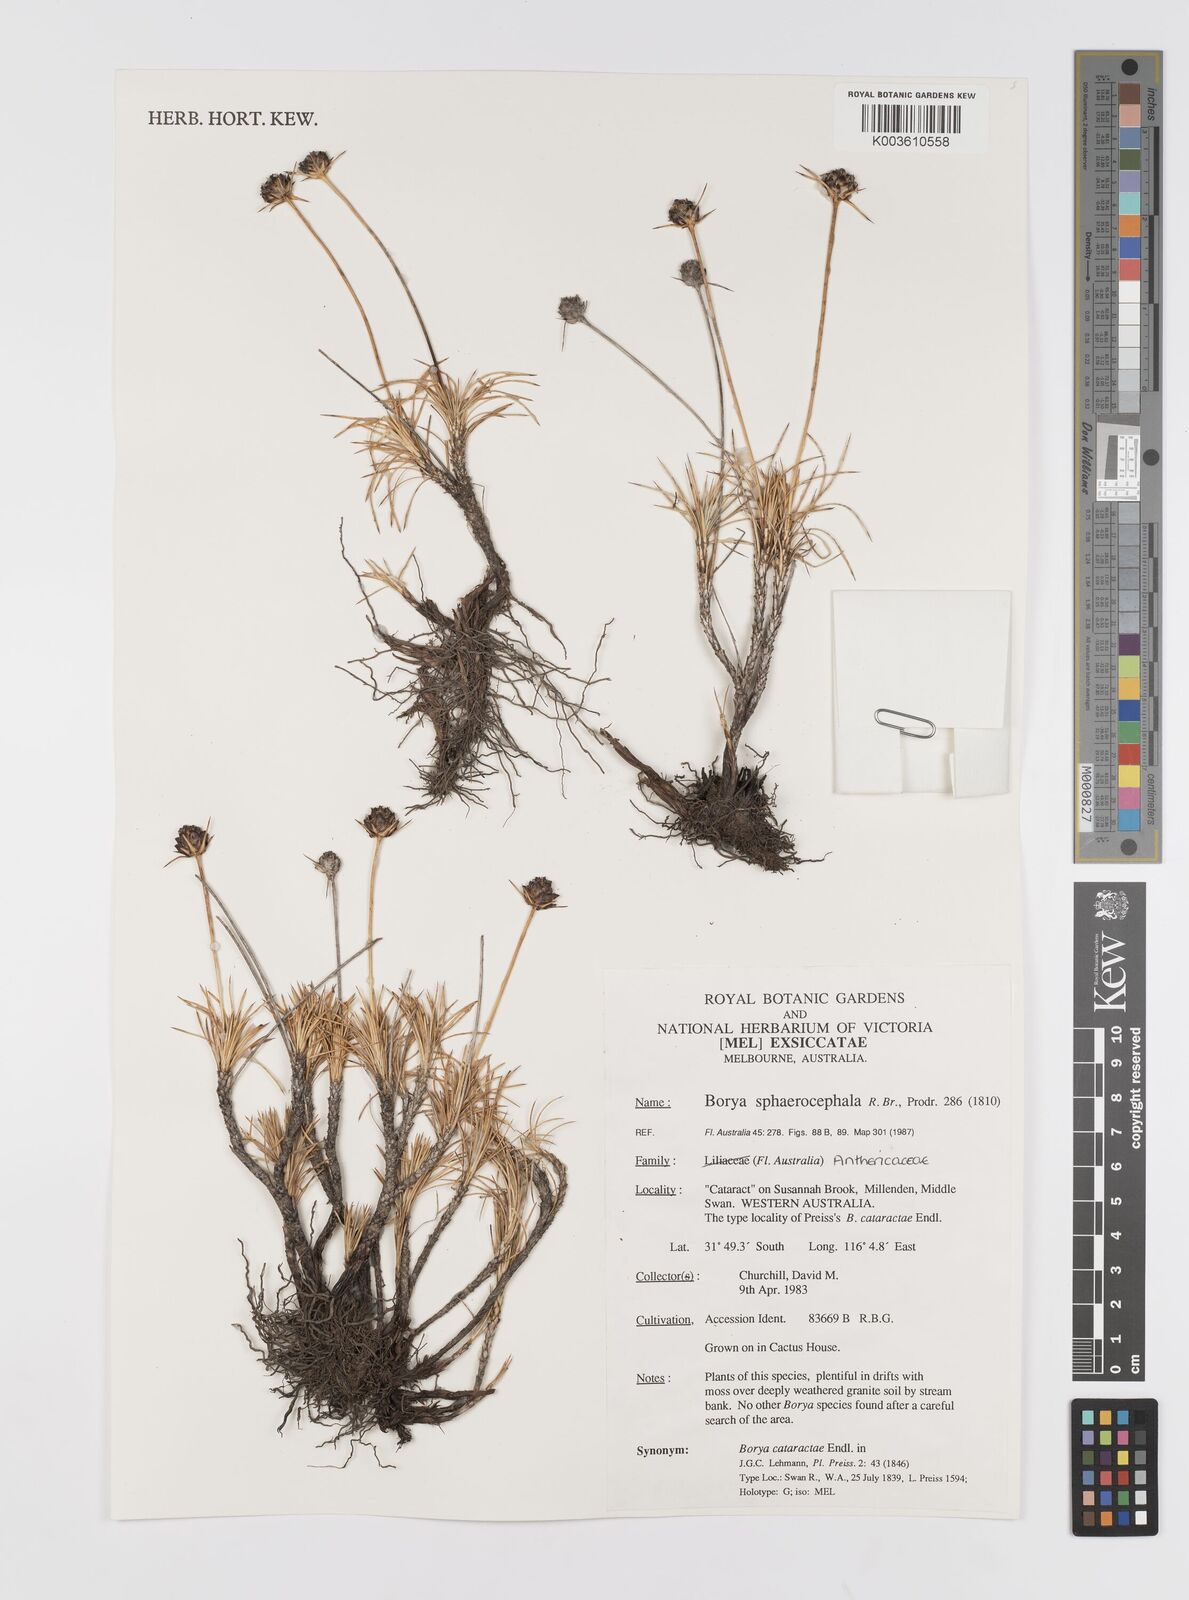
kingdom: Plantae
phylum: Tracheophyta
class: Liliopsida
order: Asparagales
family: Boryaceae
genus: Borya
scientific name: Borya sphaerocephala
